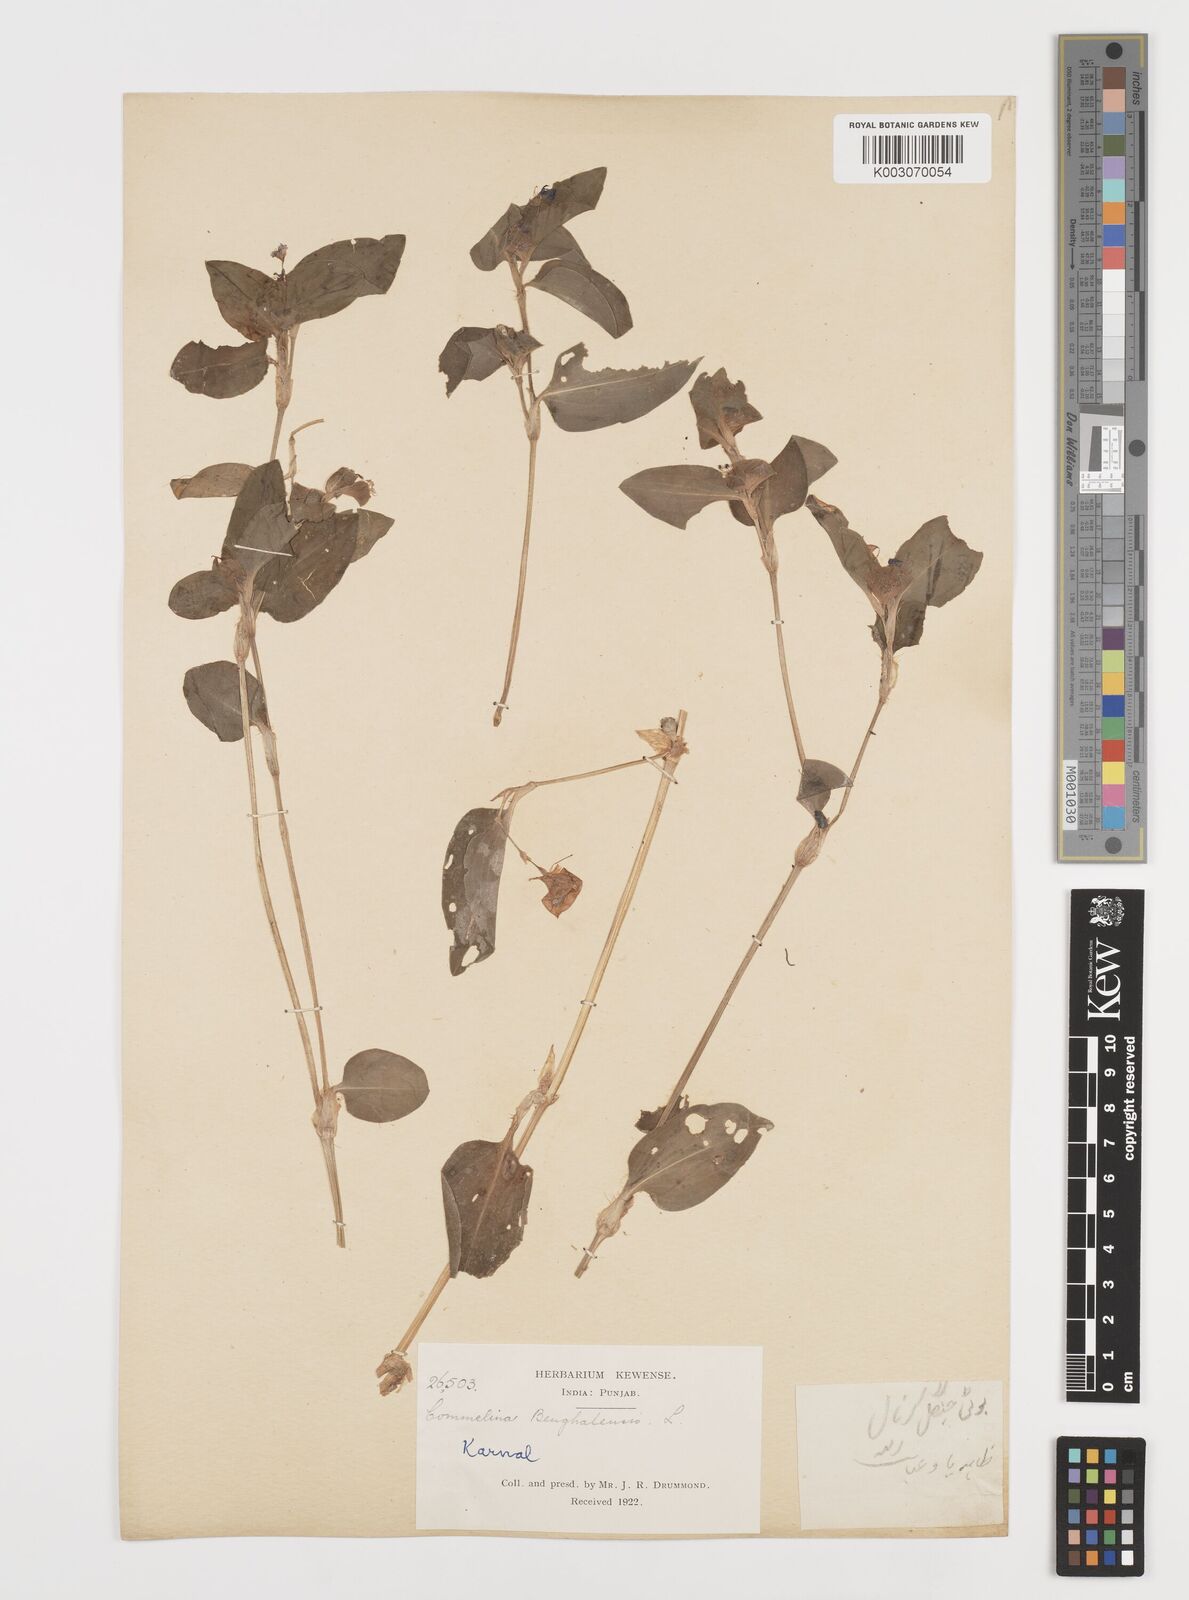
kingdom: Plantae
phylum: Tracheophyta
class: Liliopsida
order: Commelinales
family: Commelinaceae
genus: Commelina
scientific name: Commelina benghalensis
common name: Jio
